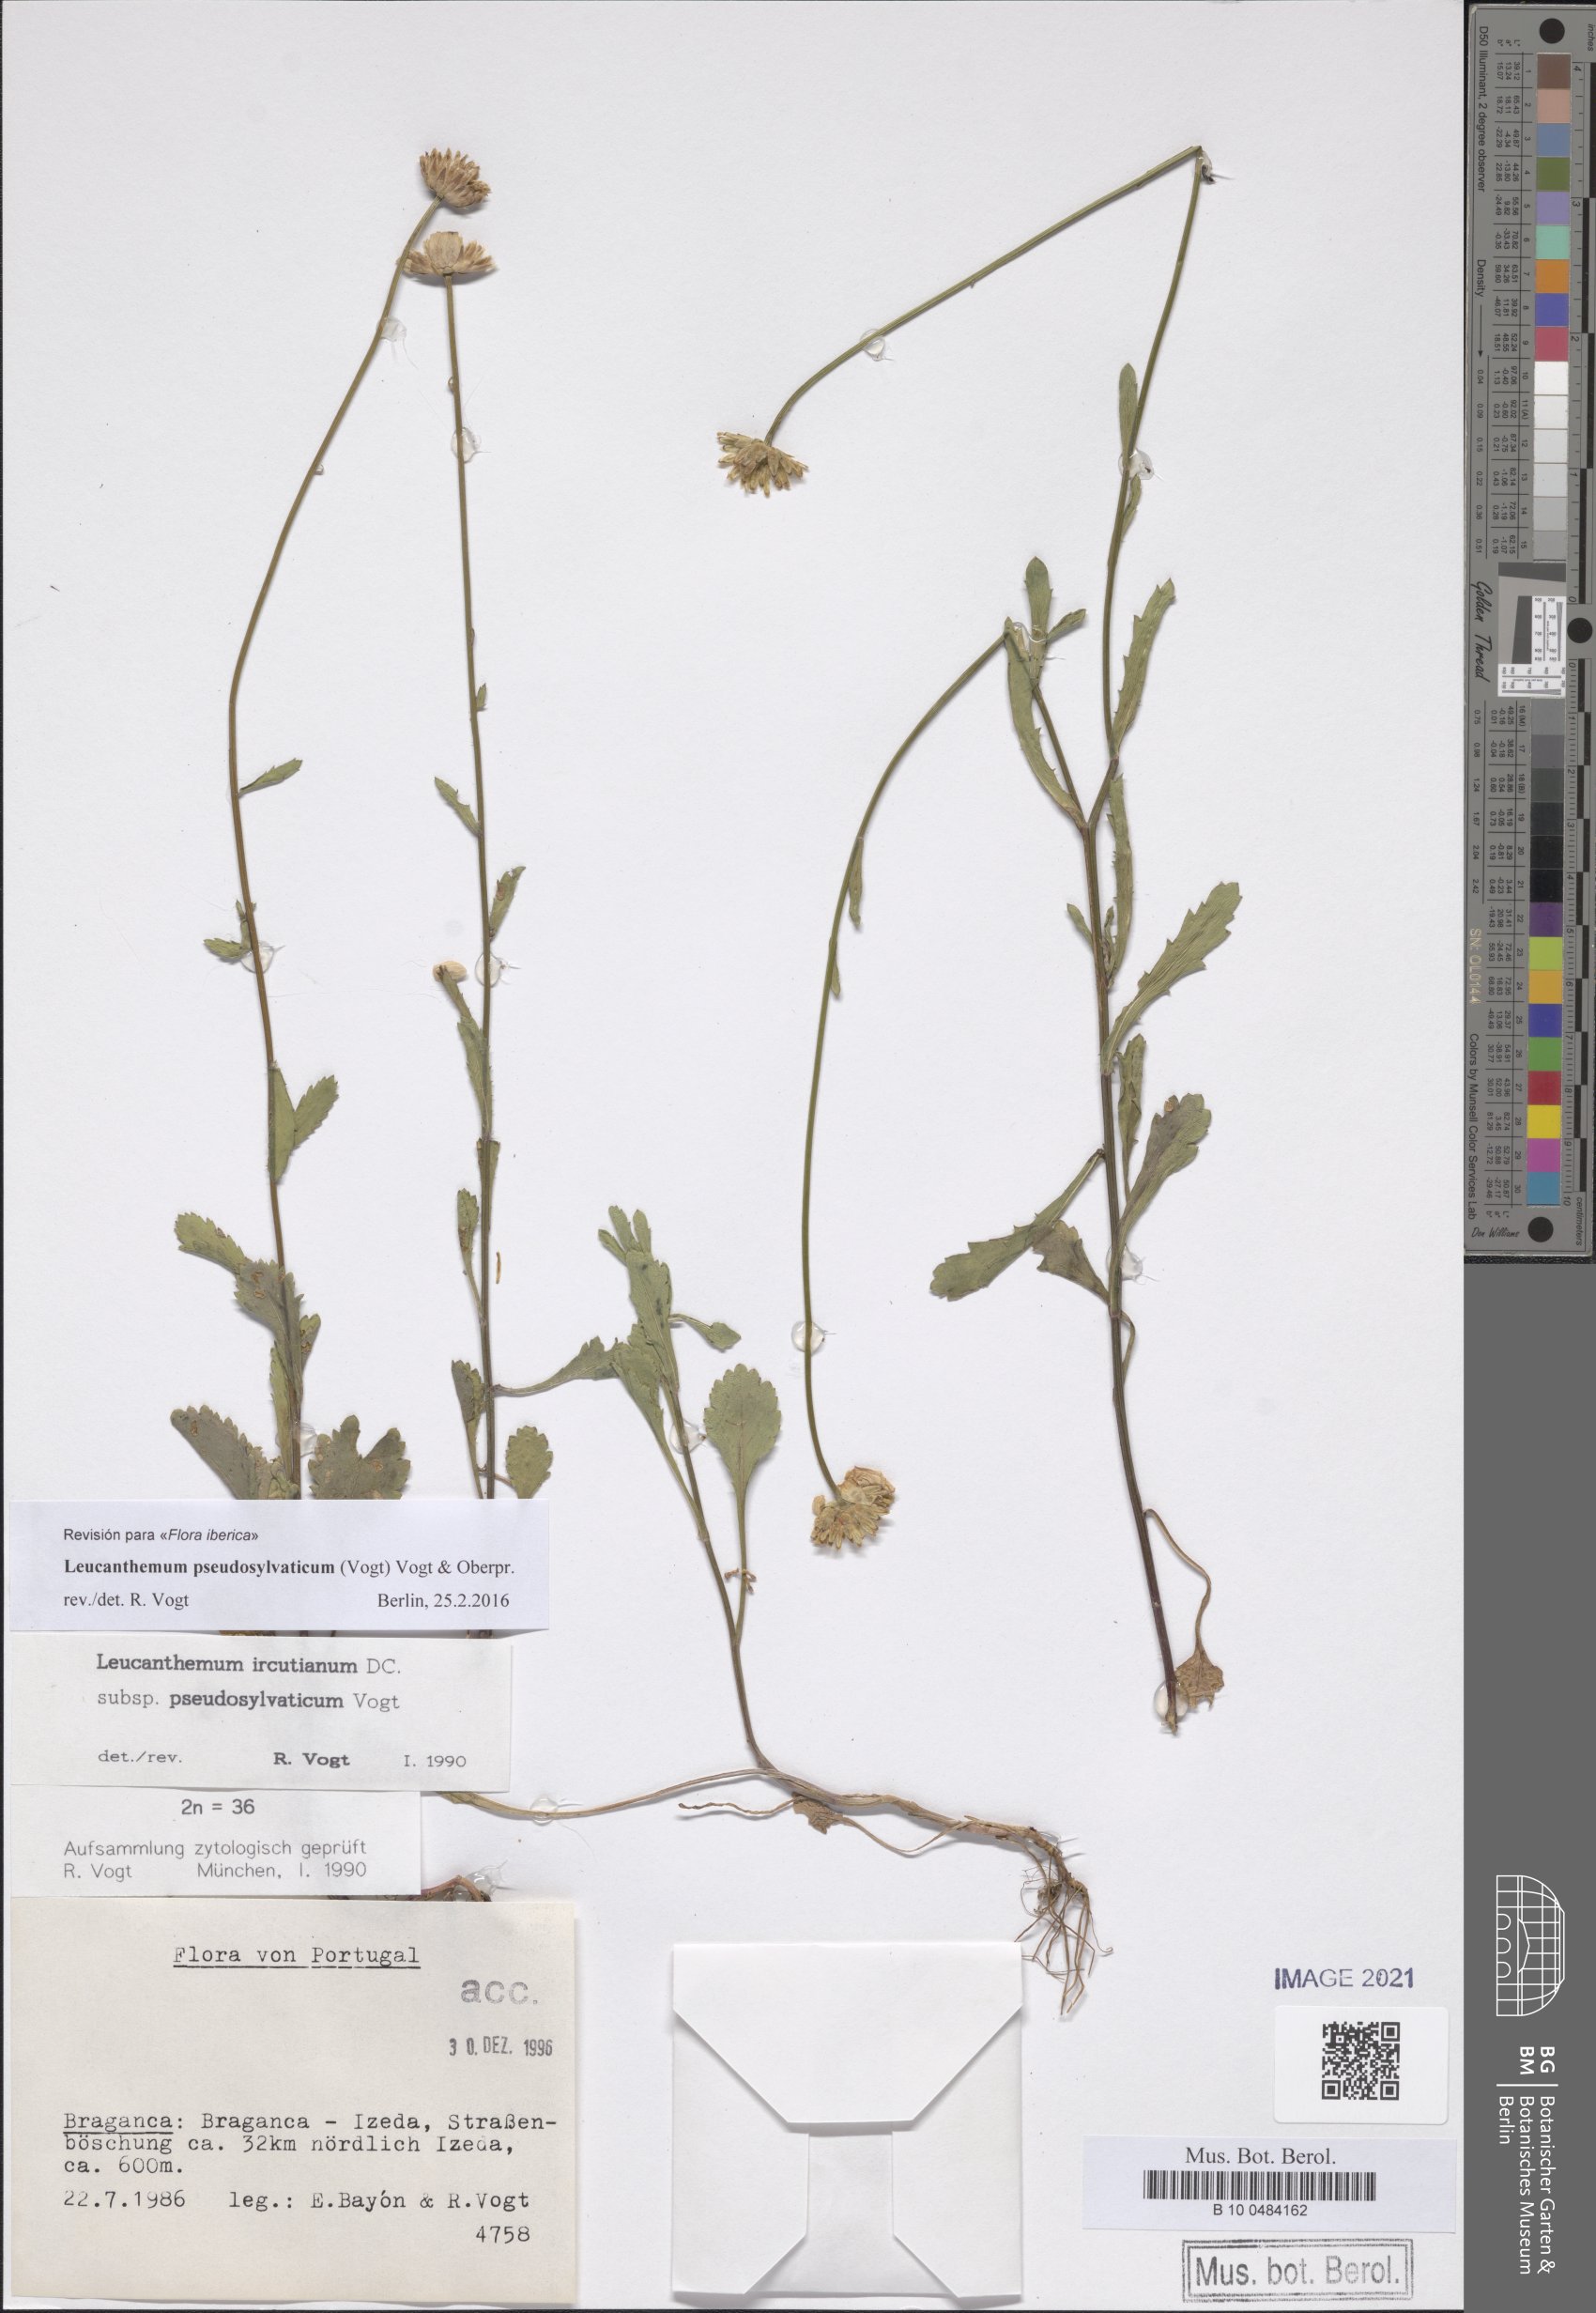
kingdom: Plantae
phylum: Tracheophyta
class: Magnoliopsida
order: Asterales
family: Asteraceae
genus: Leucanthemum
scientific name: Leucanthemum pseudosylvaticum
